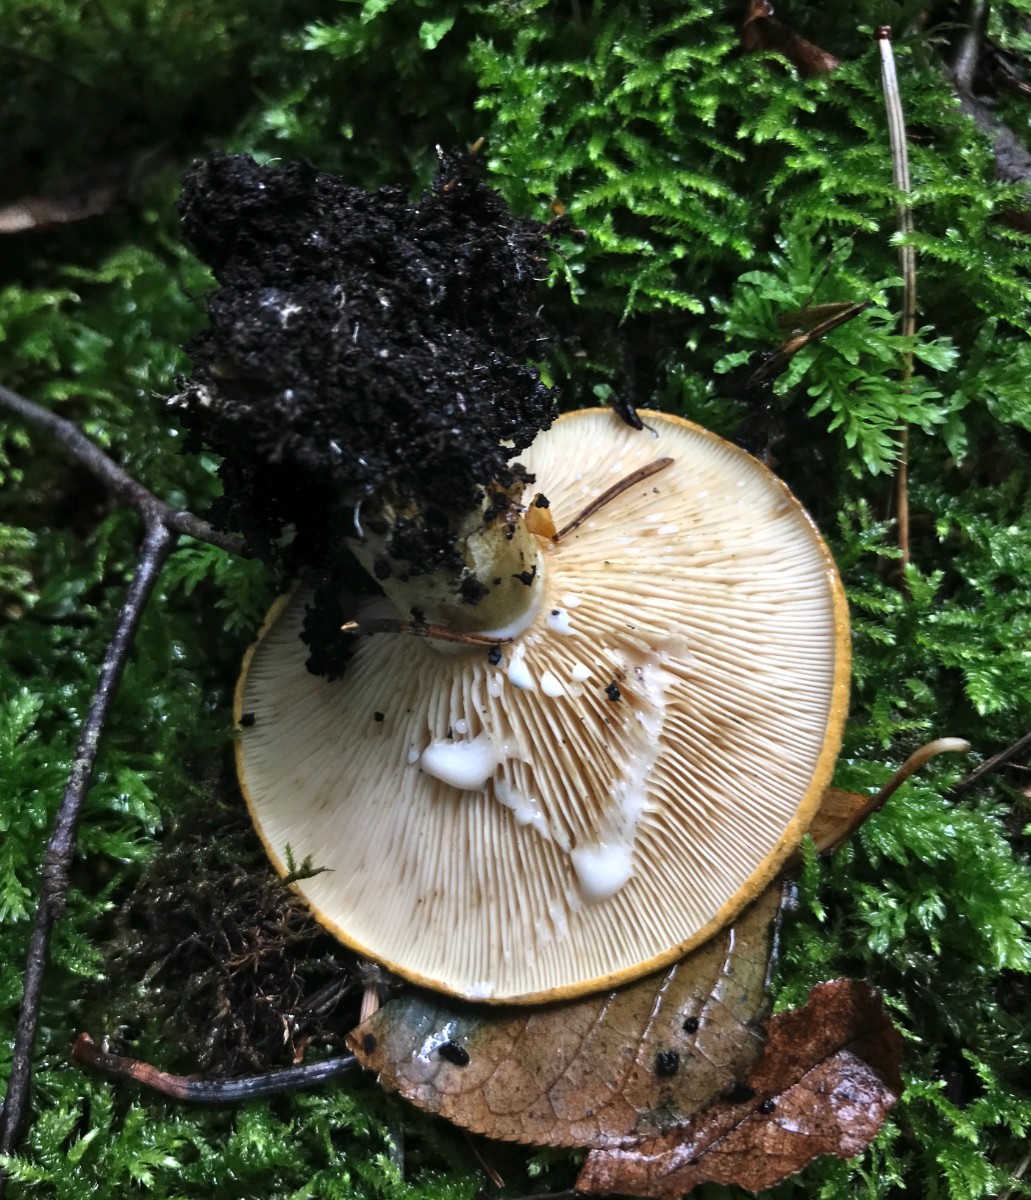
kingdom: Fungi
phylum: Basidiomycota
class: Agaricomycetes
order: Russulales
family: Russulaceae
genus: Lactarius
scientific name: Lactarius necator
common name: manddraber-mælkehat
